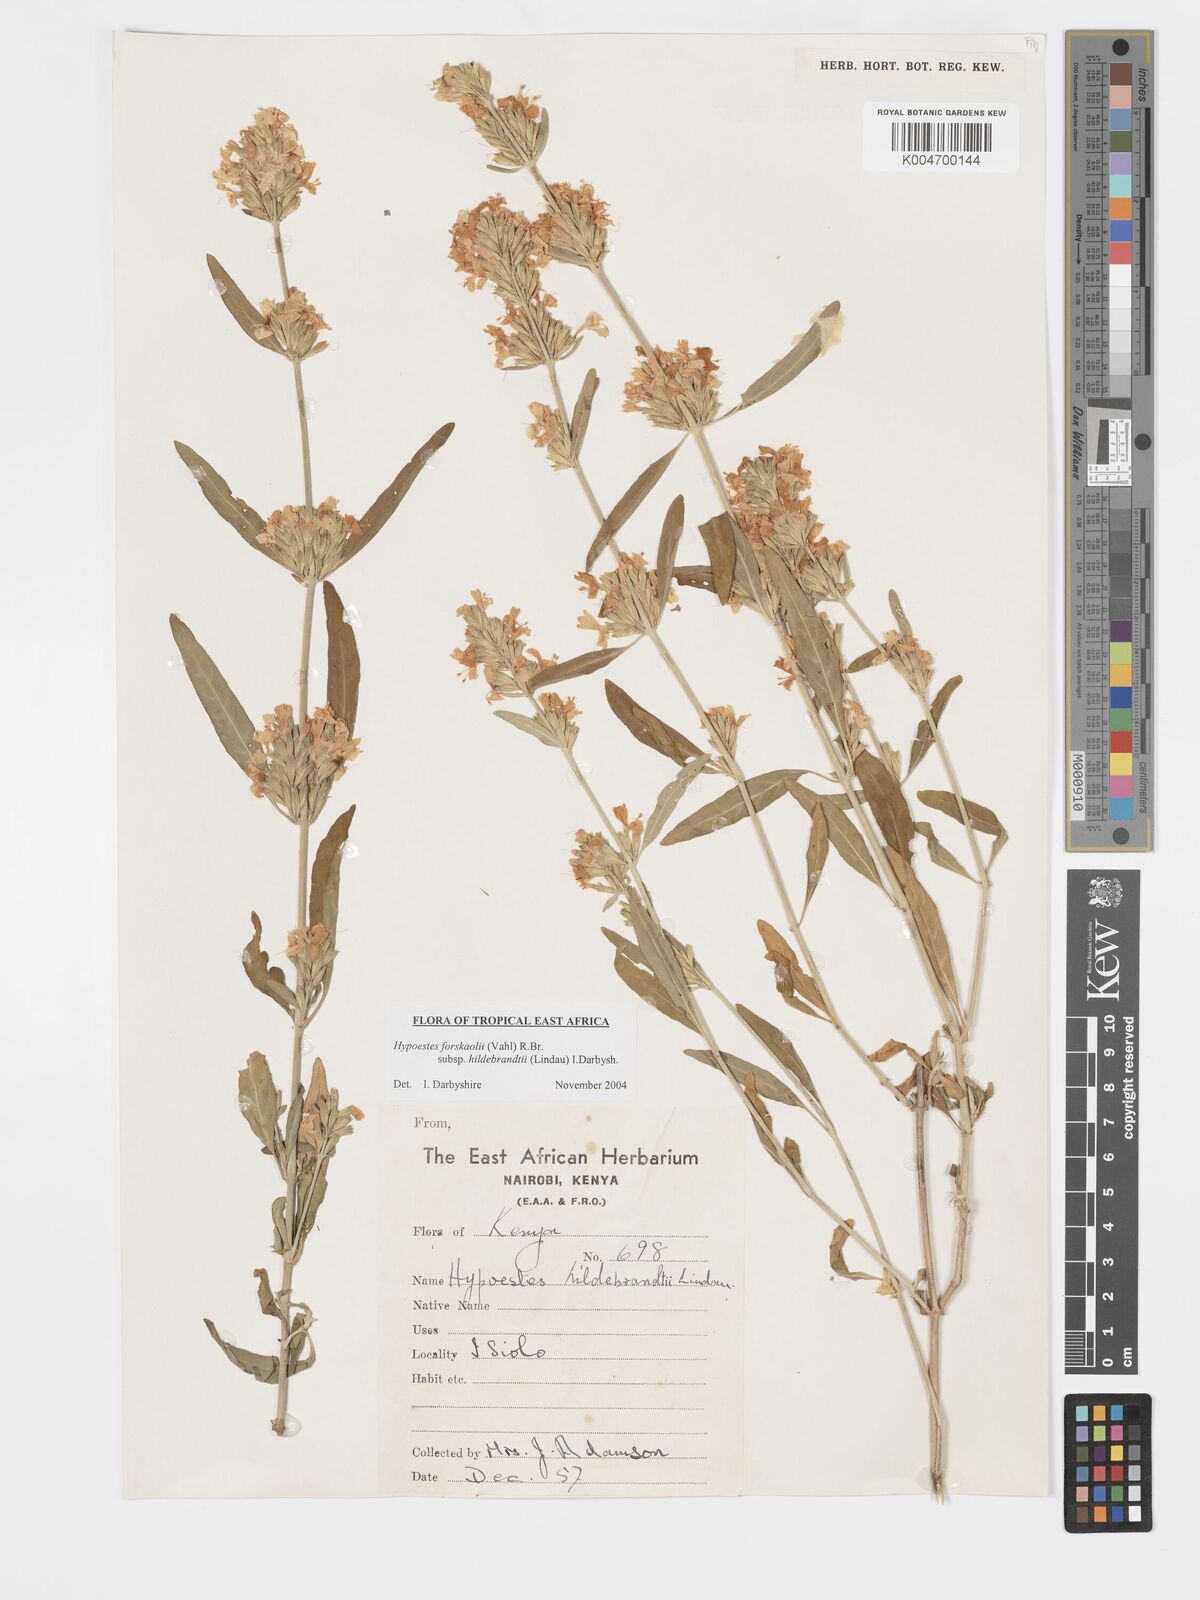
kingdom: Plantae
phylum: Tracheophyta
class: Magnoliopsida
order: Lamiales
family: Acanthaceae
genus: Hypoestes
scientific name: Hypoestes forskaolii
